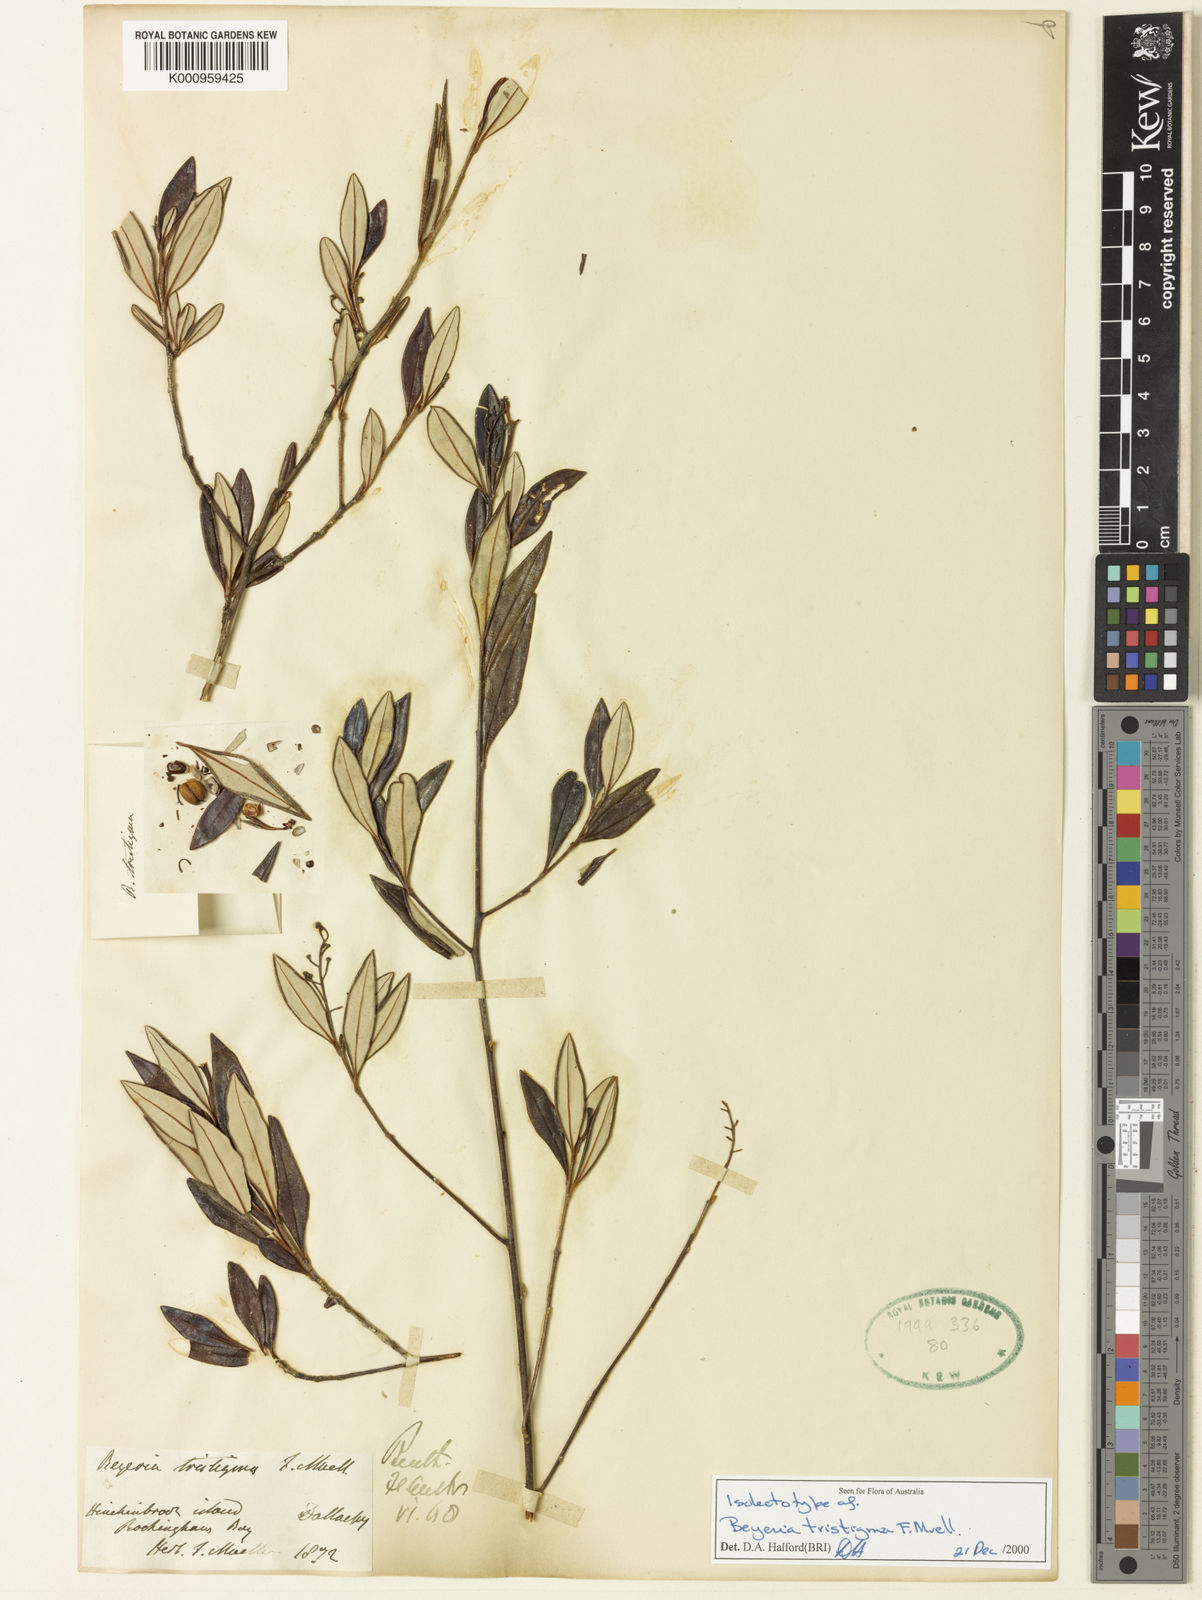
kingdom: Plantae
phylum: Tracheophyta
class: Magnoliopsida
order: Malpighiales
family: Euphorbiaceae
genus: Shonia
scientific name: Shonia tristigma
